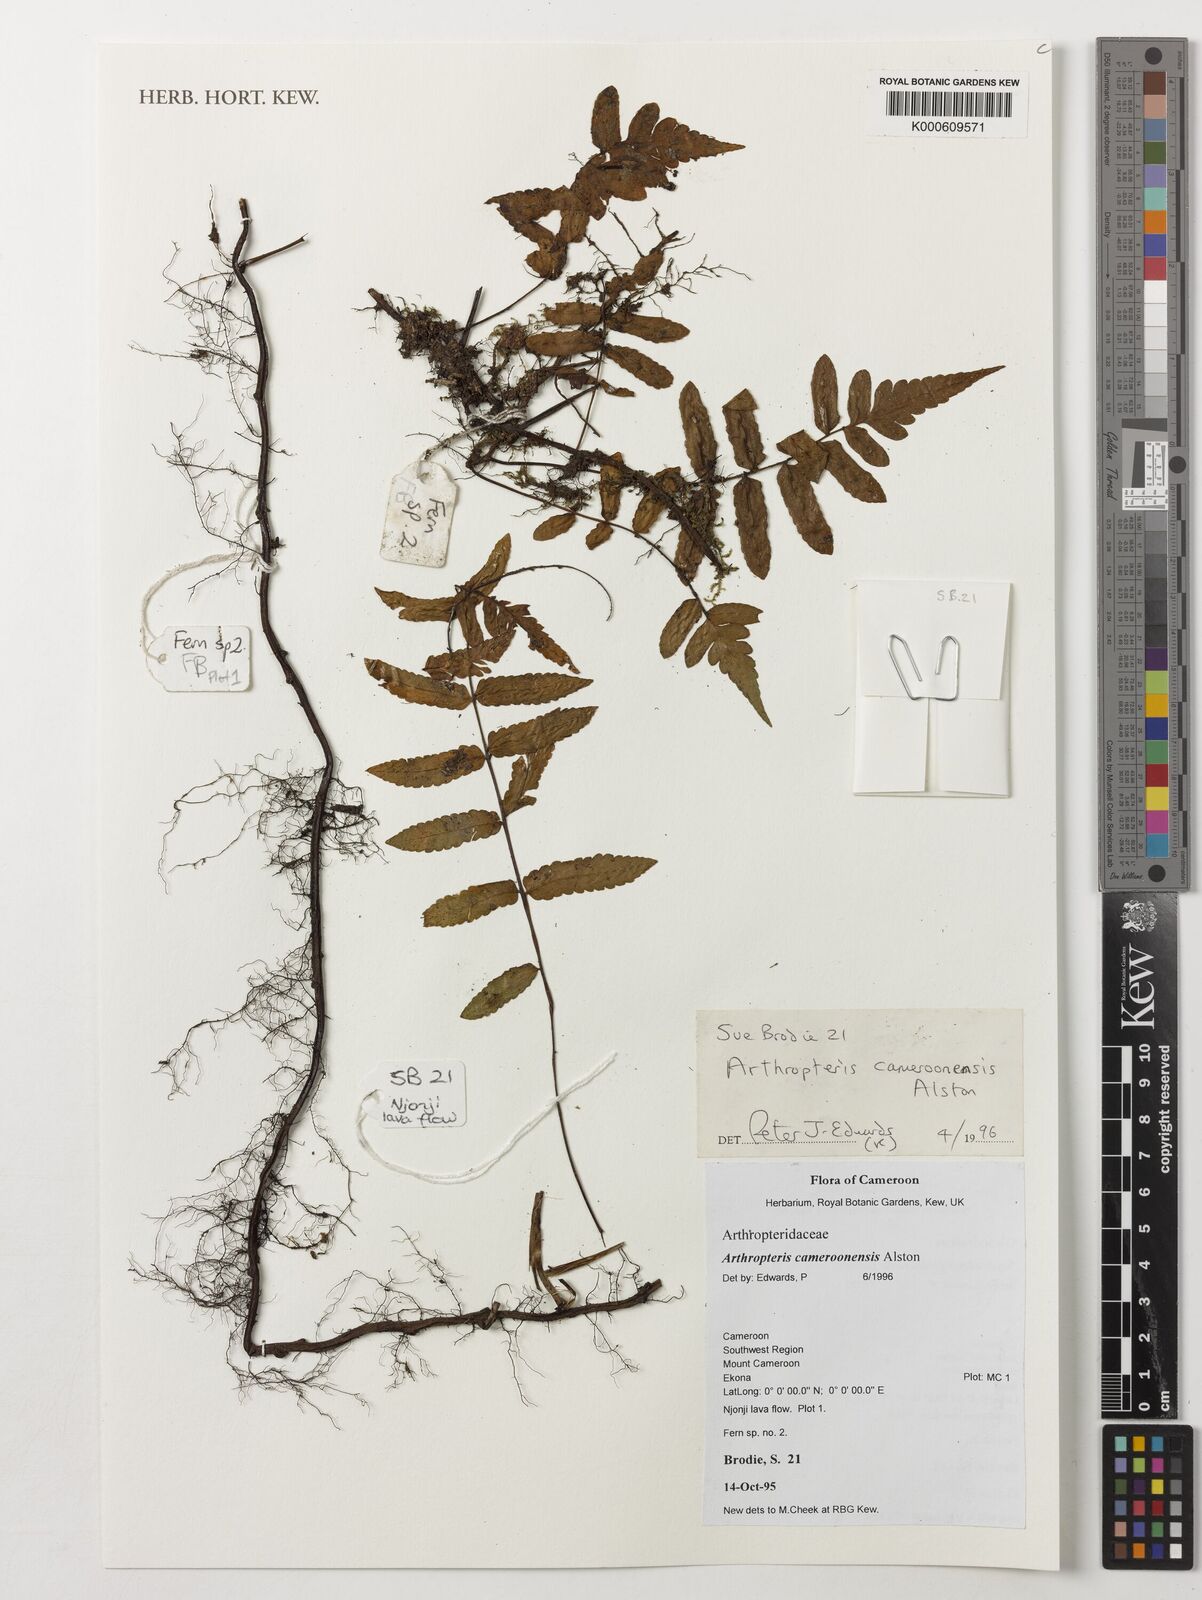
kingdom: Plantae
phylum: Tracheophyta
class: Polypodiopsida
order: Polypodiales
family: Tectariaceae
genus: Arthropteris
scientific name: Arthropteris cameroonensis
